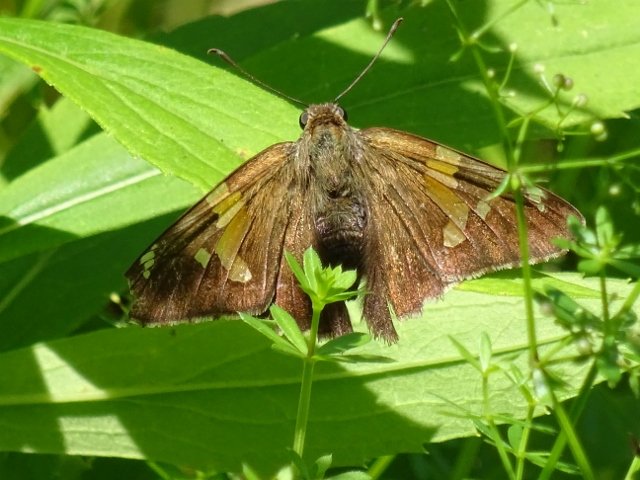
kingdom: Animalia
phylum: Arthropoda
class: Insecta
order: Lepidoptera
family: Hesperiidae
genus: Epargyreus
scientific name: Epargyreus clarus
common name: Silver-spotted Skipper
